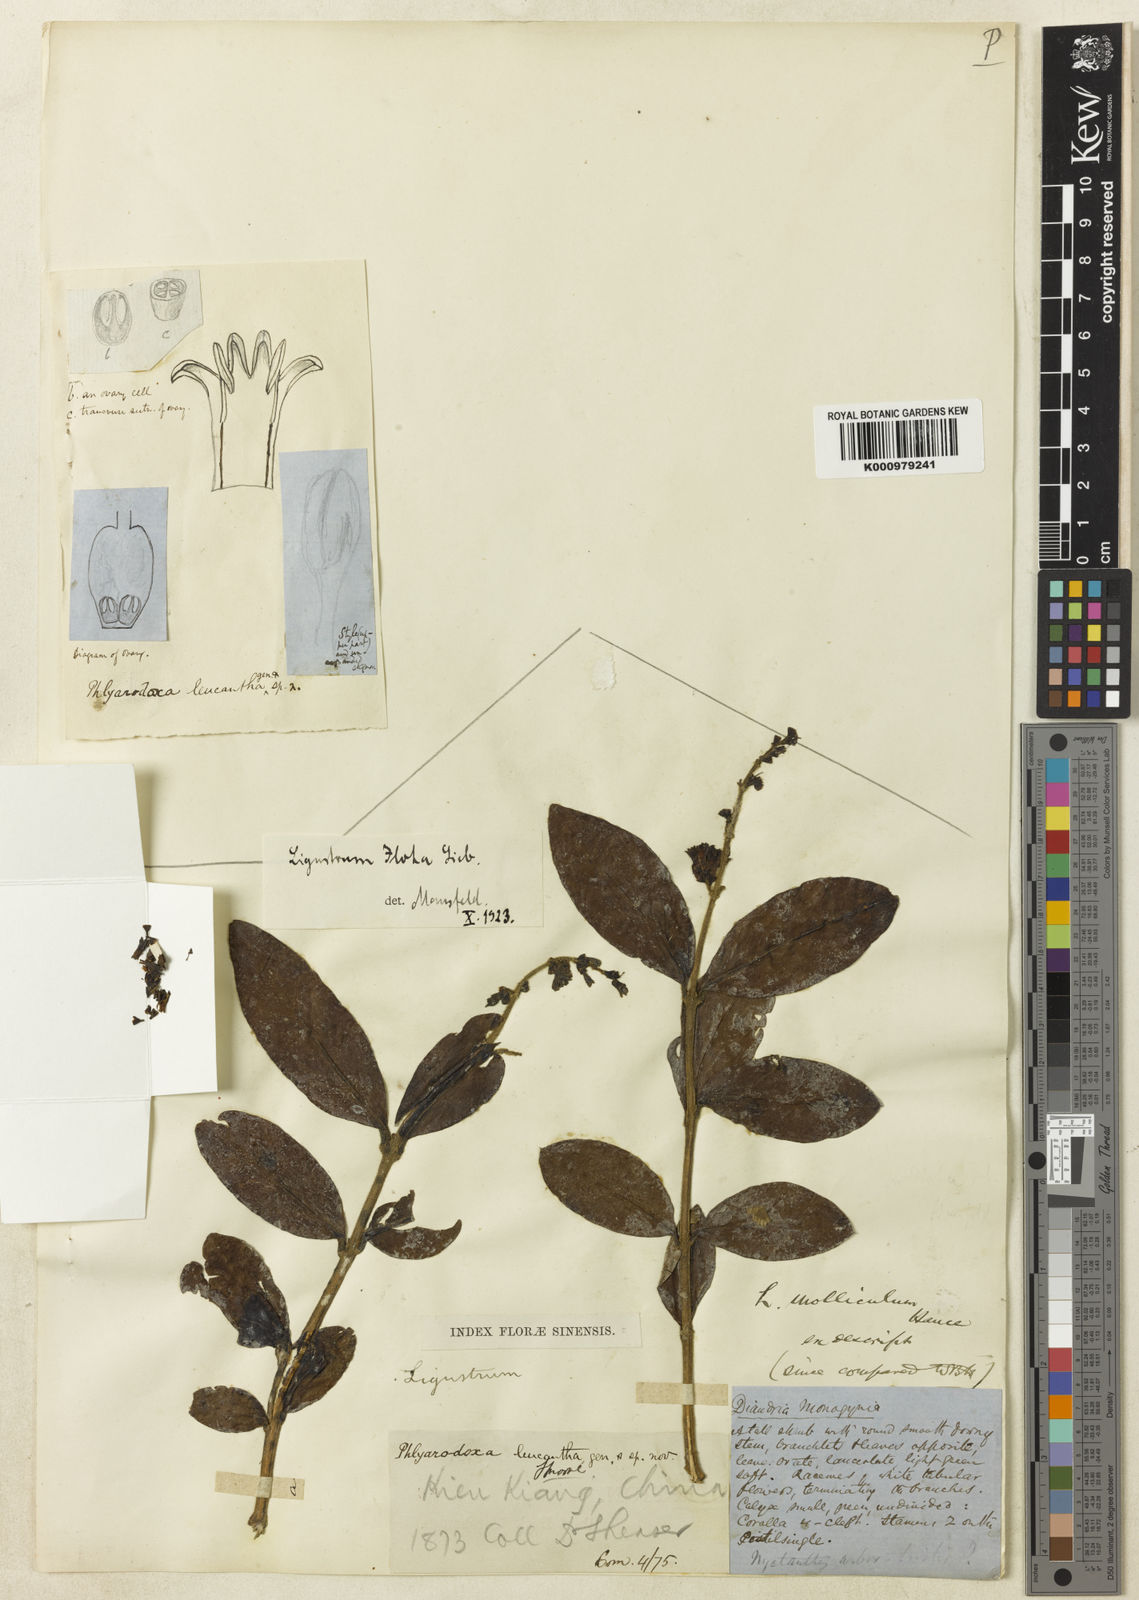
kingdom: Plantae
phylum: Tracheophyta
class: Magnoliopsida
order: Lamiales
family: Oleaceae
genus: Ligustrum
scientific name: Ligustrum leucanthum
